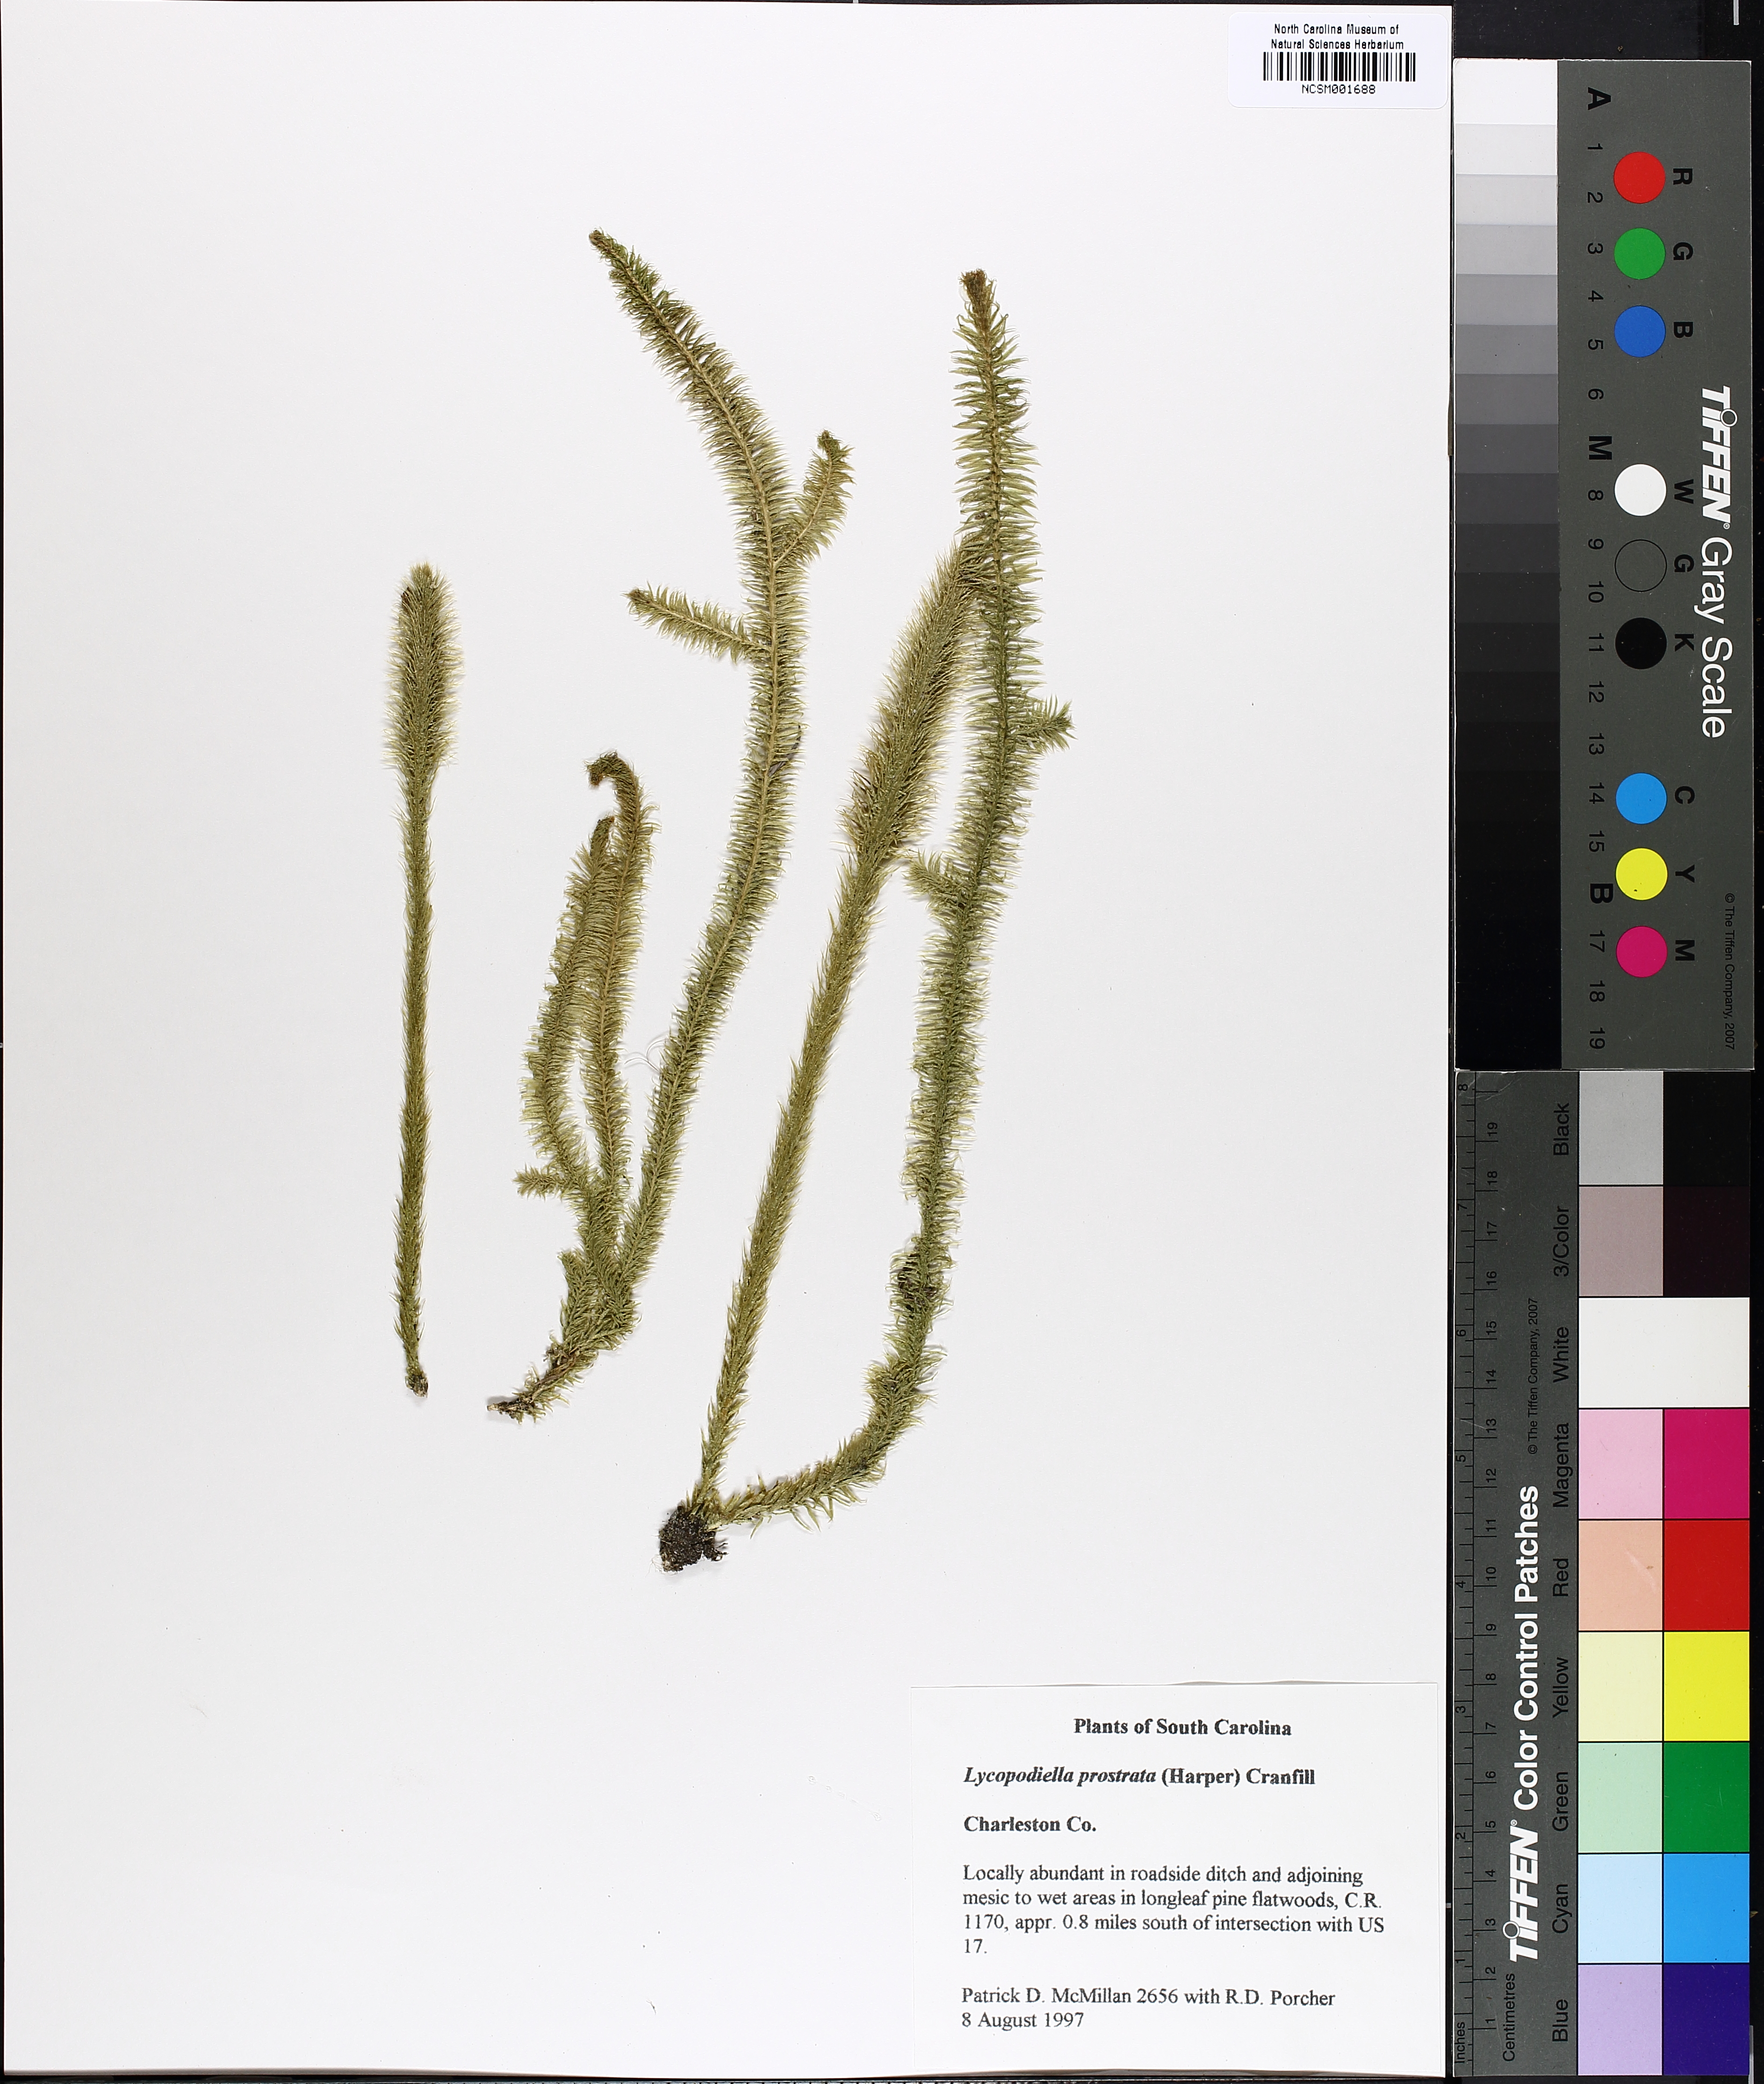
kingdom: Plantae
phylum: Tracheophyta
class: Lycopodiopsida
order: Lycopodiales
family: Lycopodiaceae
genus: Lycopodiella
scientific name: Lycopodiella prostrata
